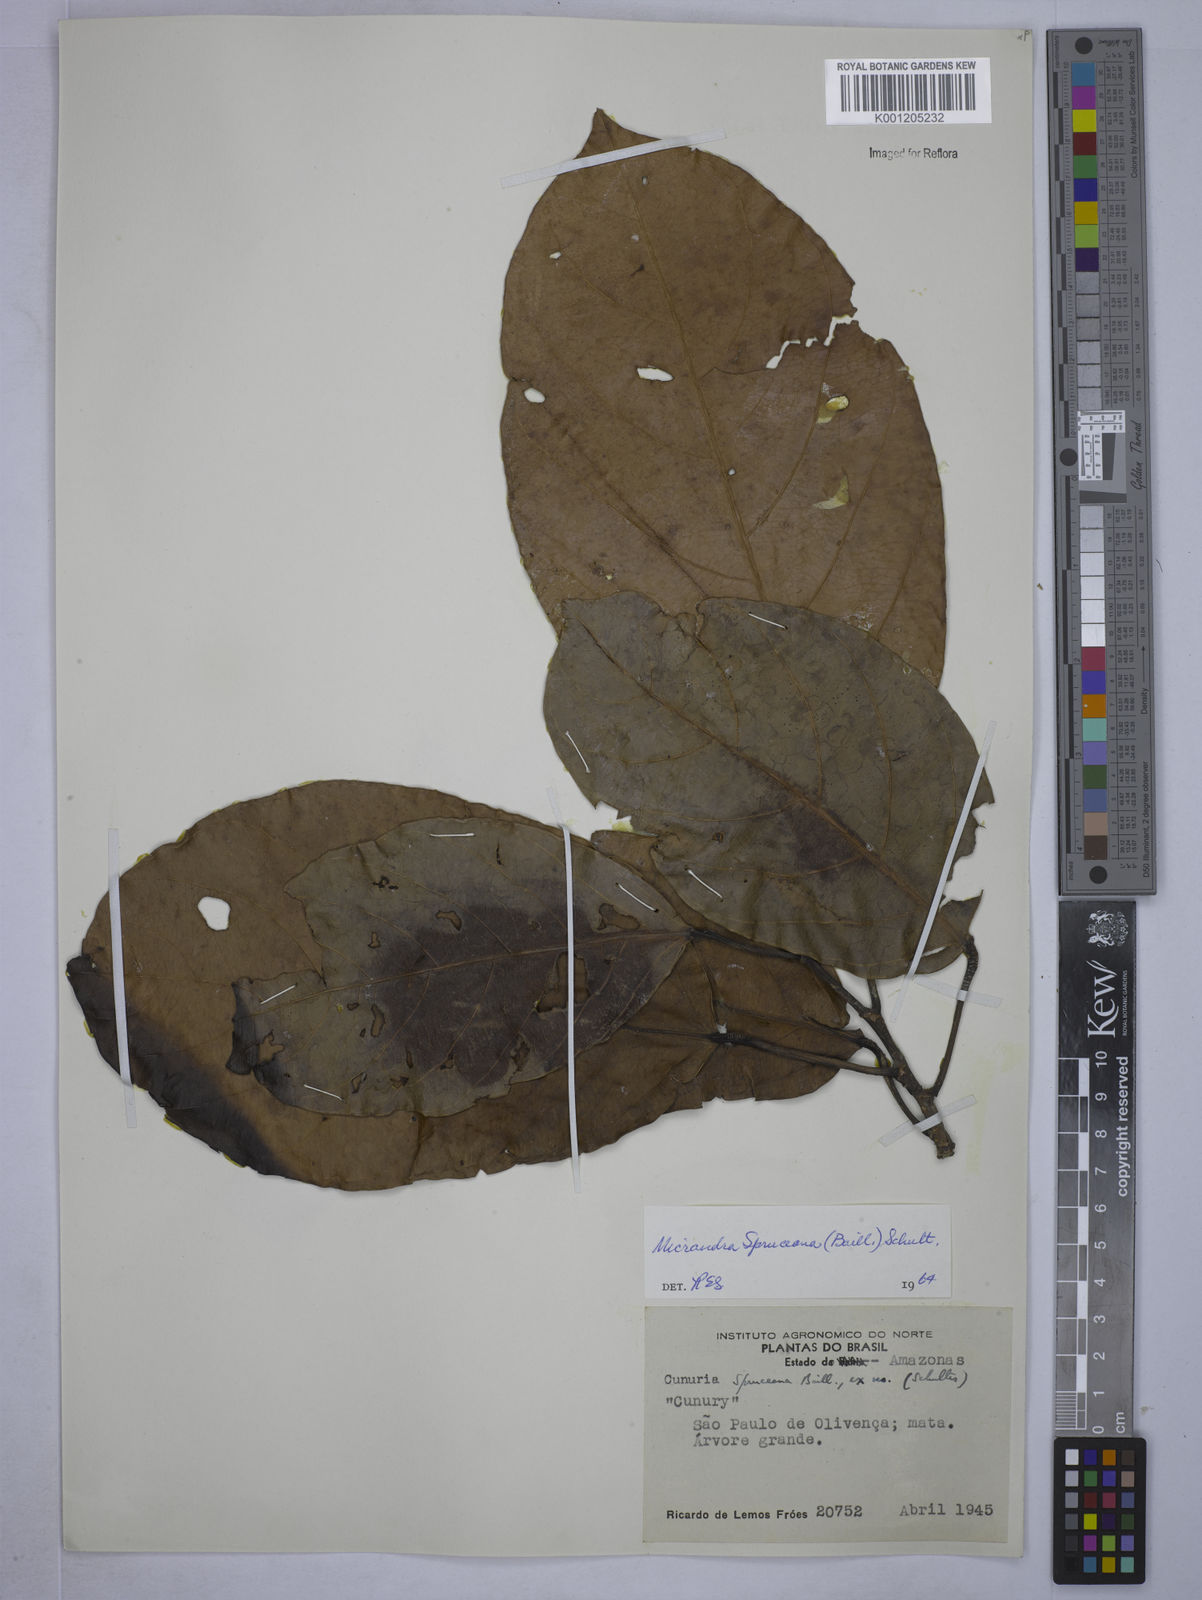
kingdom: Plantae
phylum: Tracheophyta
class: Magnoliopsida
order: Malpighiales
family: Euphorbiaceae
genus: Micrandra
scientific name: Micrandra spruceana
